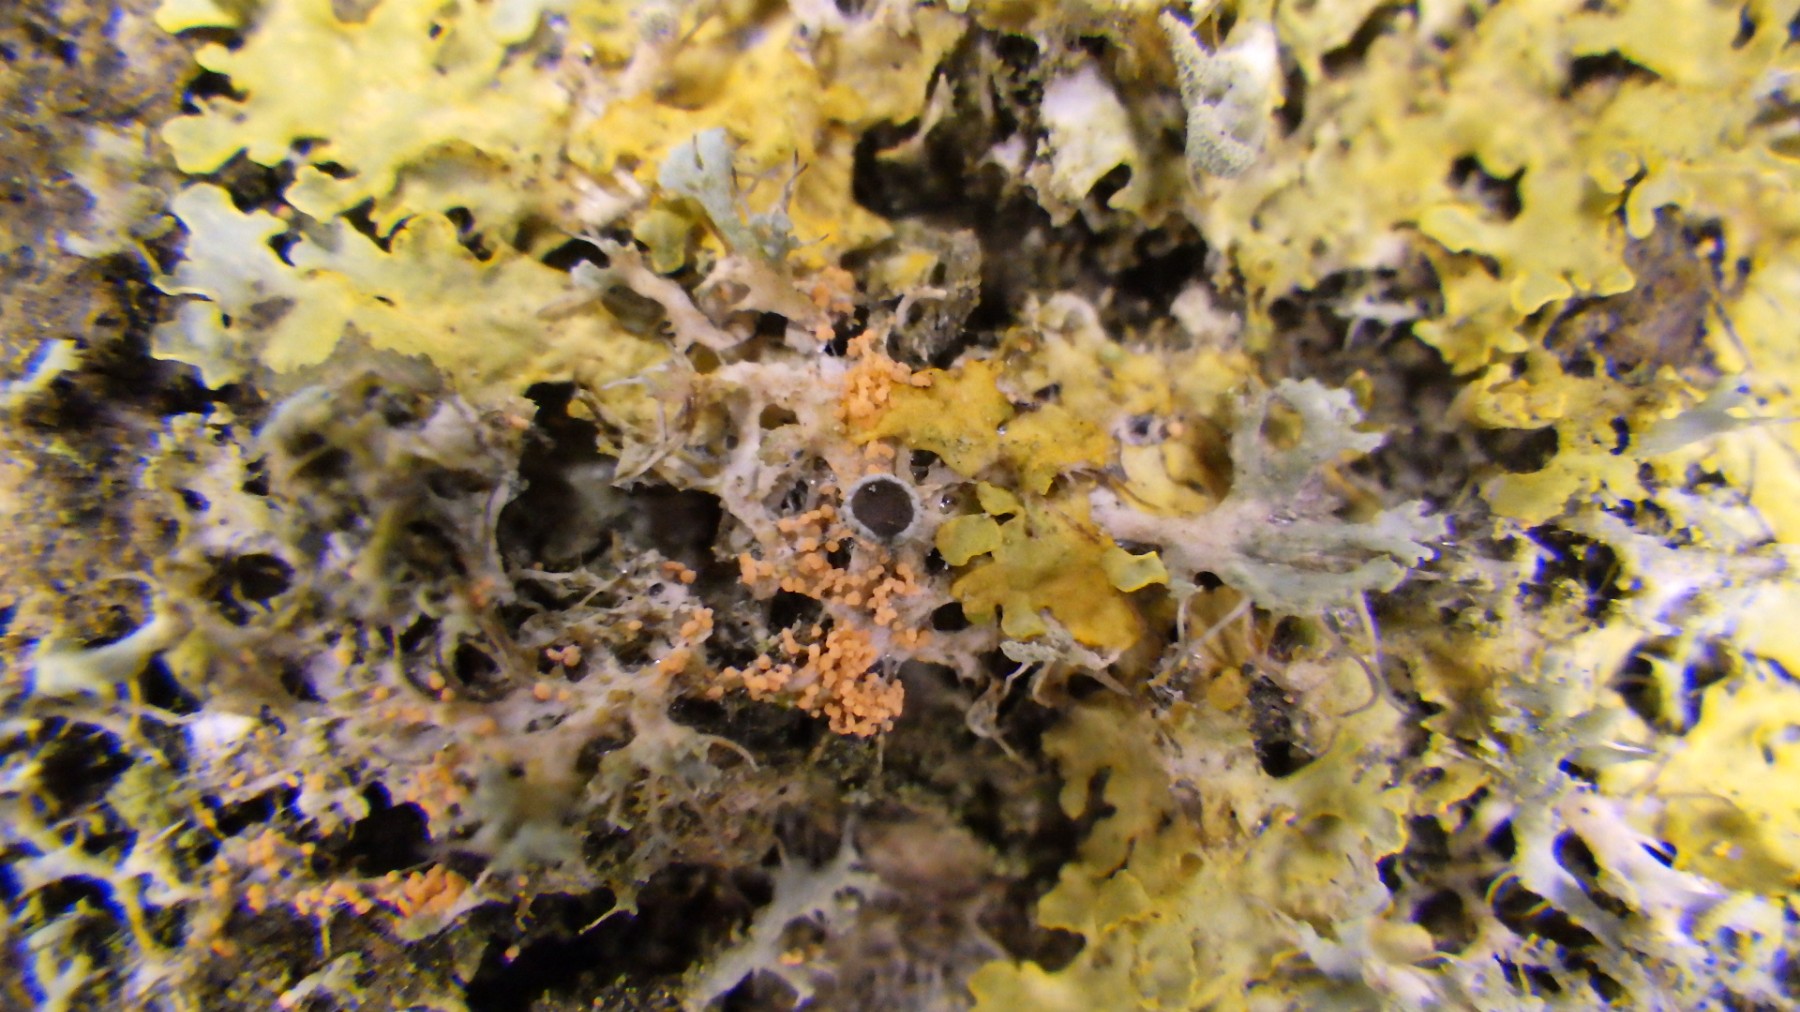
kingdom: Fungi
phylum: Basidiomycota
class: Agaricomycetes
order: Corticiales
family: Corticiaceae
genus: Erythricium
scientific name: Erythricium aurantiacum
